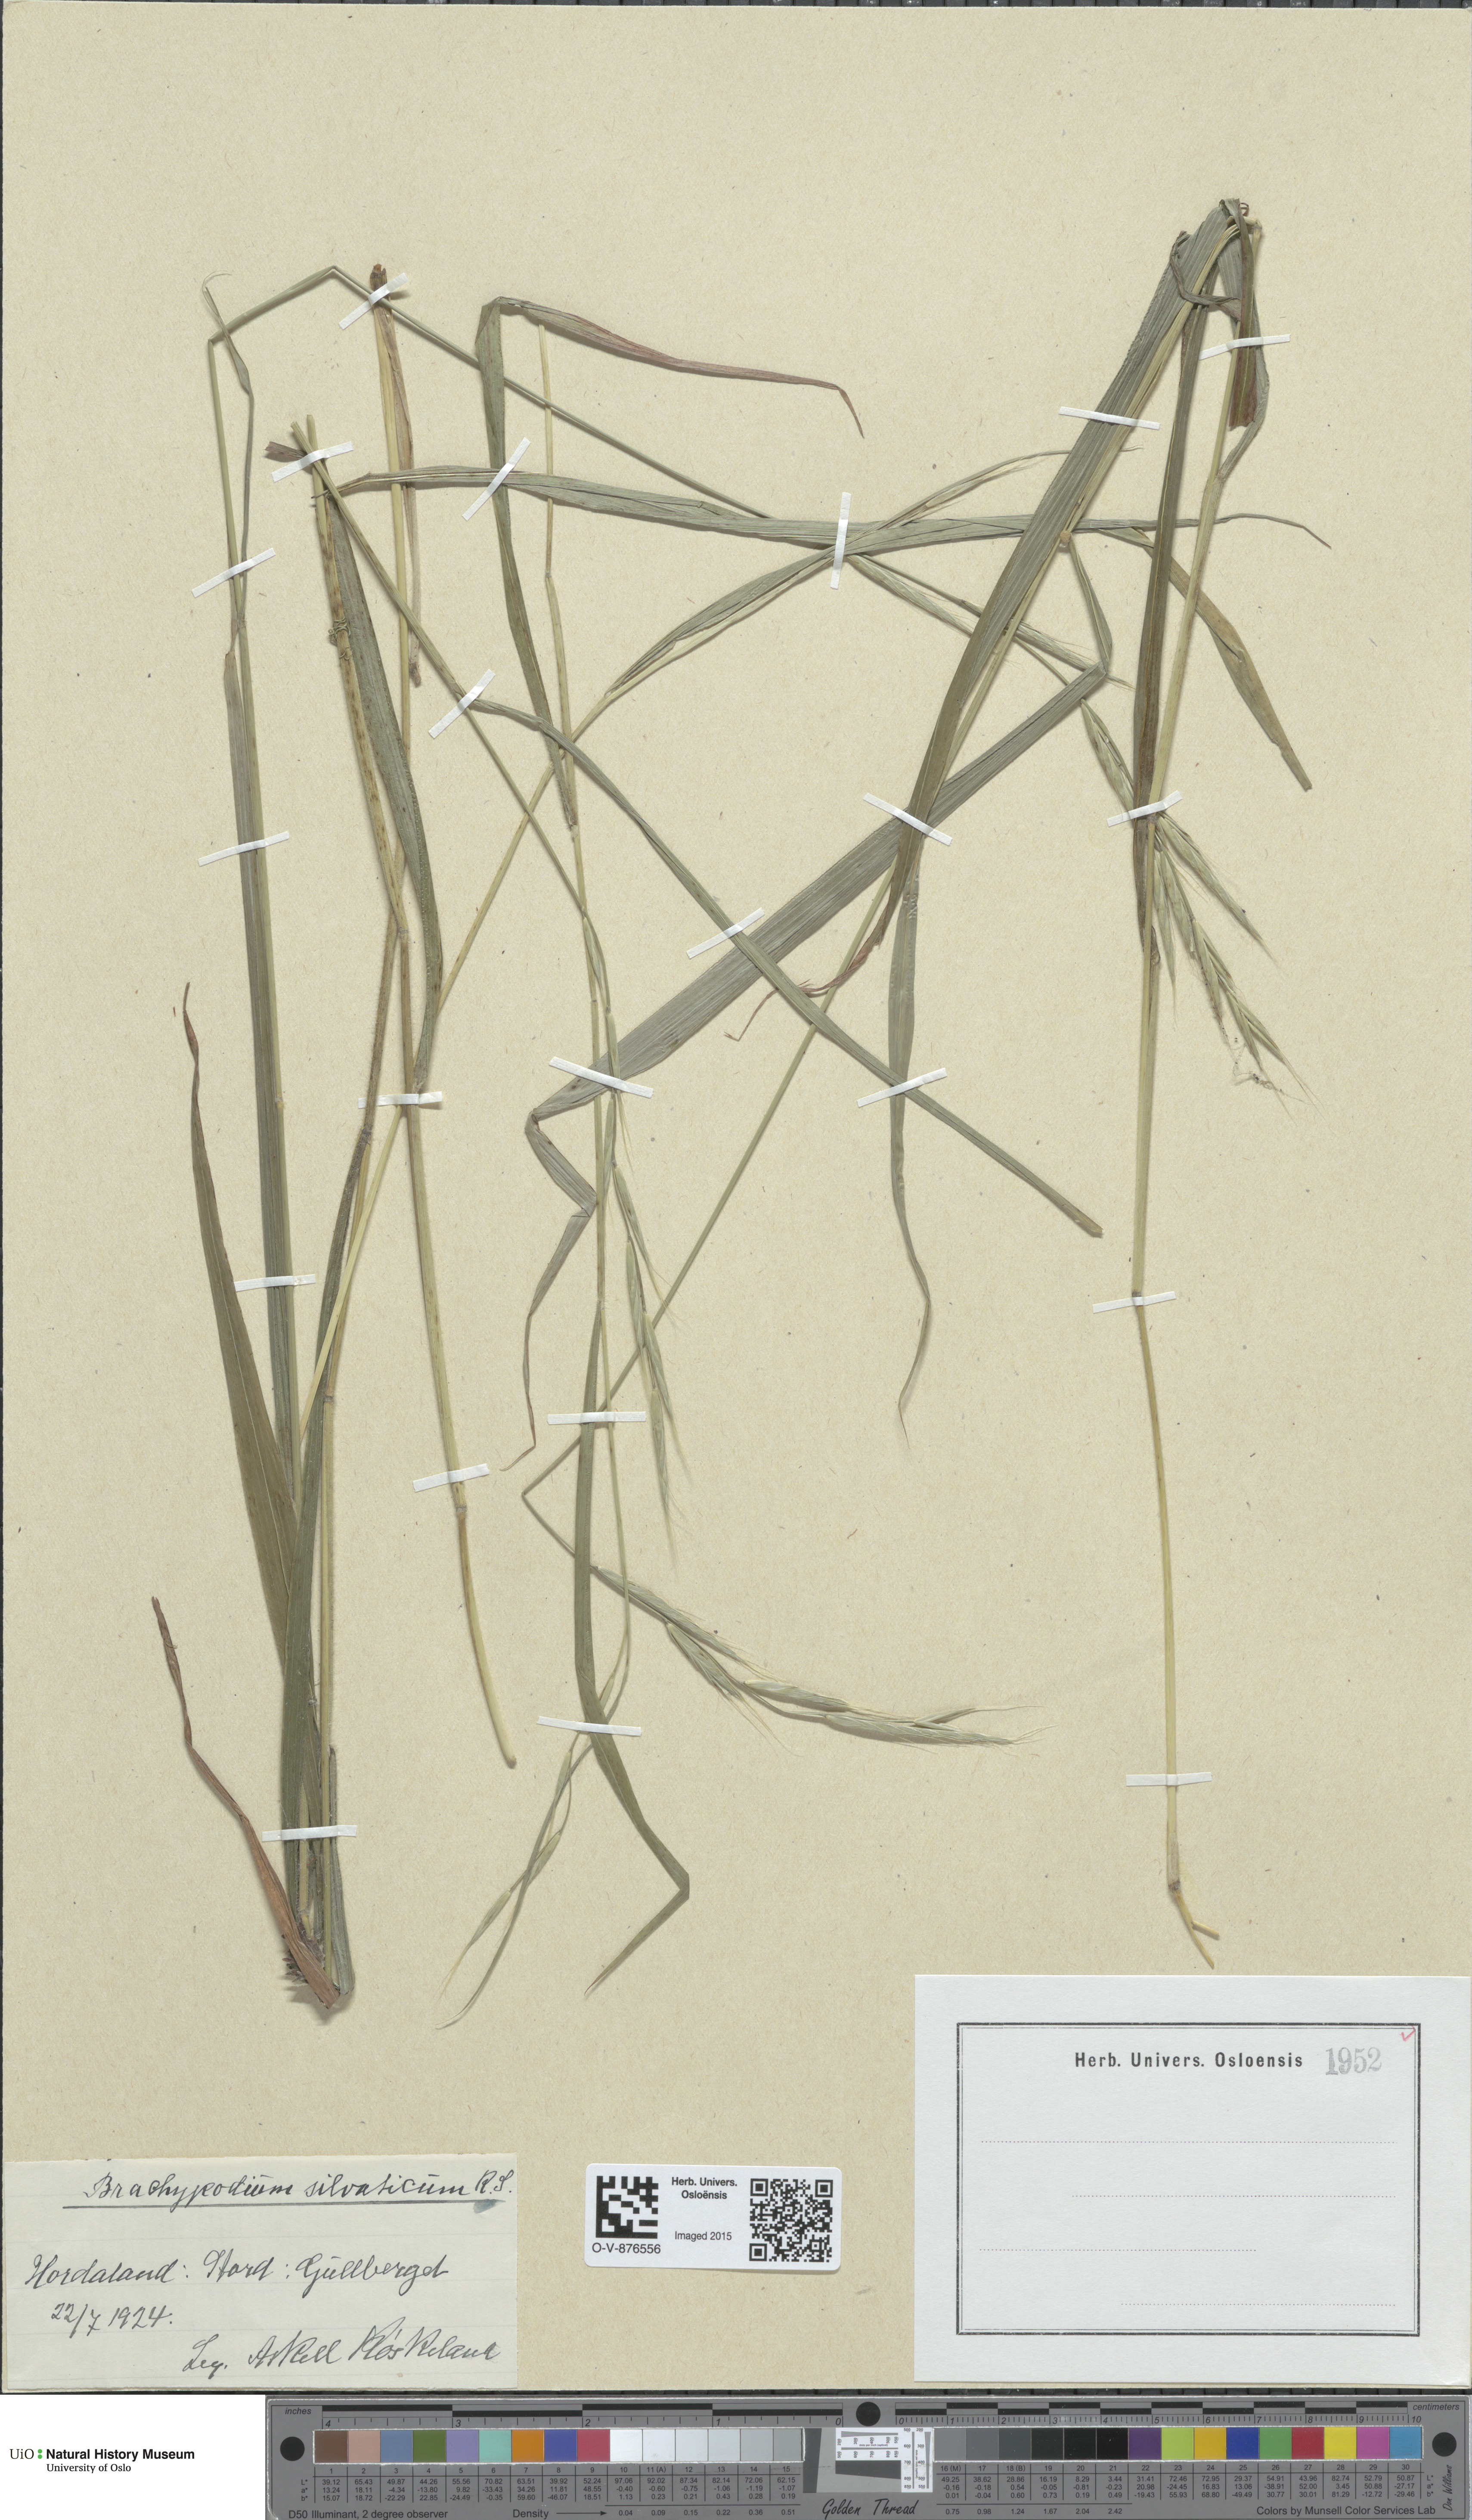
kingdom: Plantae
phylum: Tracheophyta
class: Liliopsida
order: Poales
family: Poaceae
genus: Brachypodium
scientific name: Brachypodium sylvaticum
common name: False-brome
